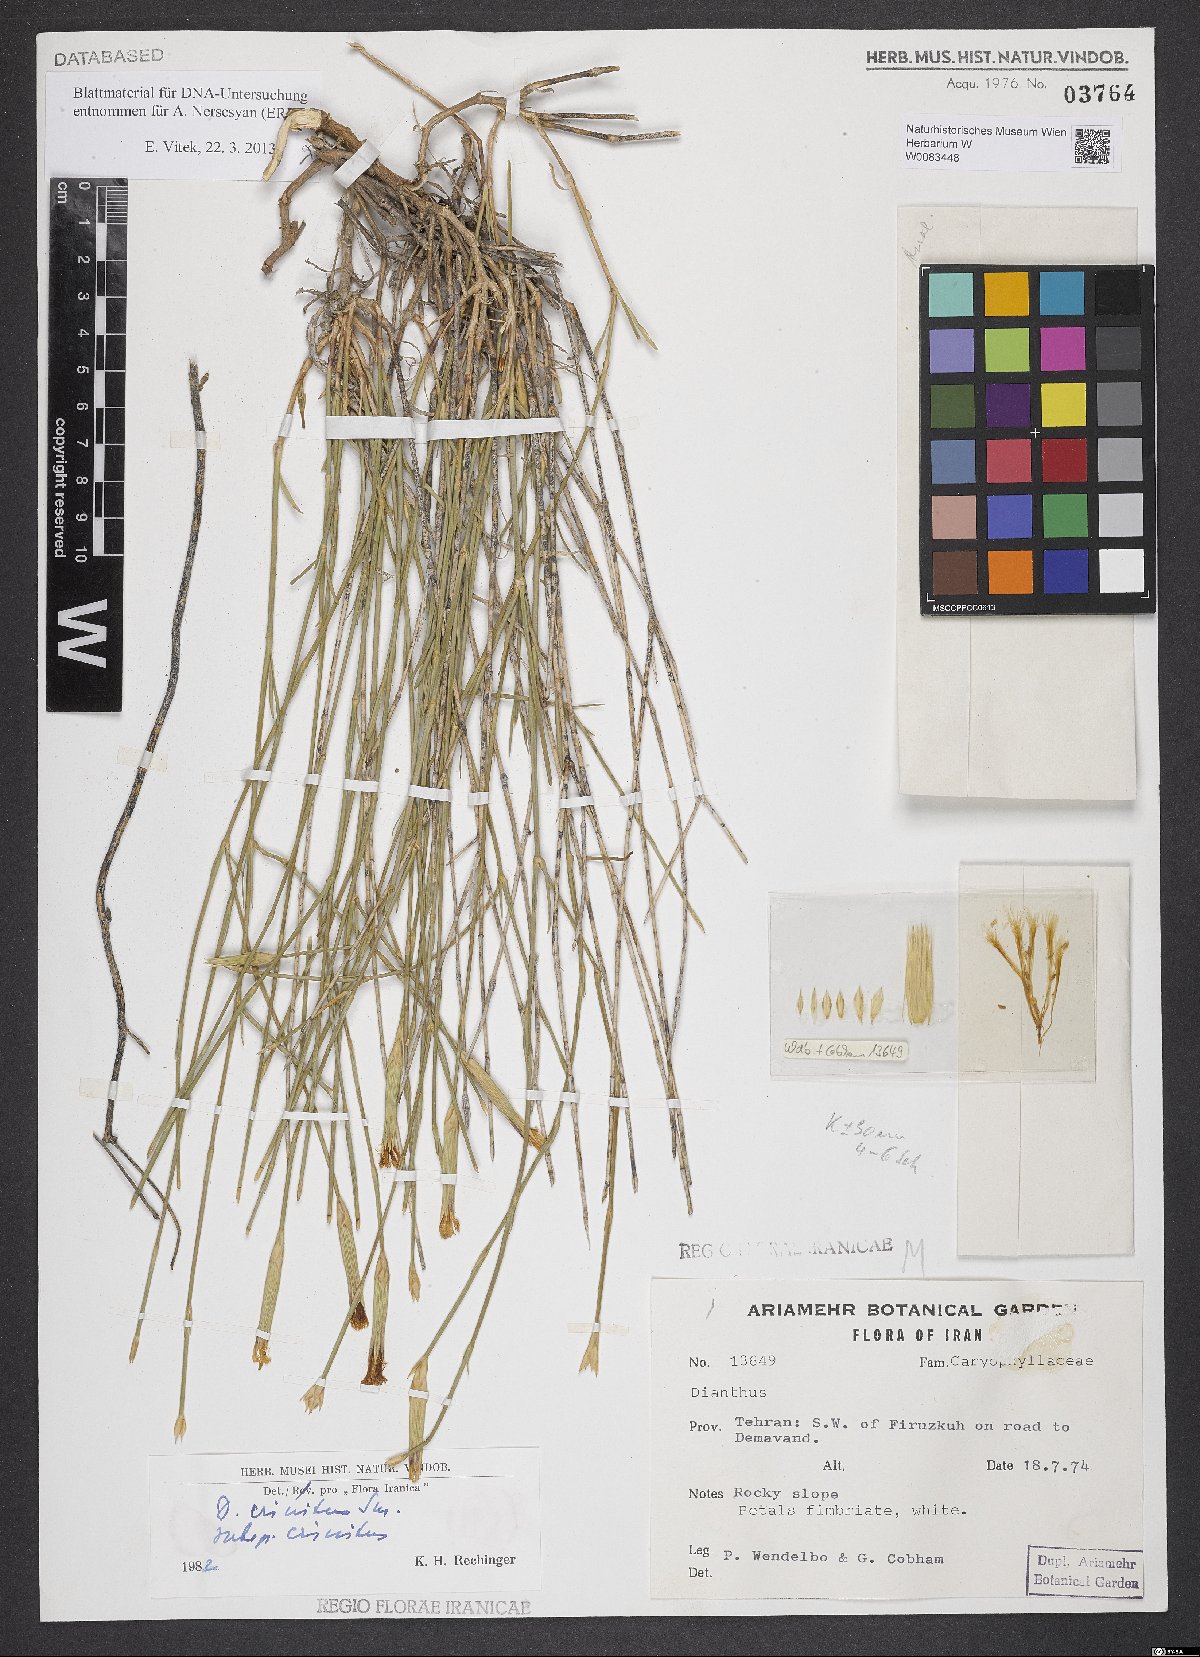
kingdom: Plantae
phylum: Tracheophyta
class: Magnoliopsida
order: Caryophyllales
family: Caryophyllaceae
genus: Dianthus
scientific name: Dianthus crinitus
